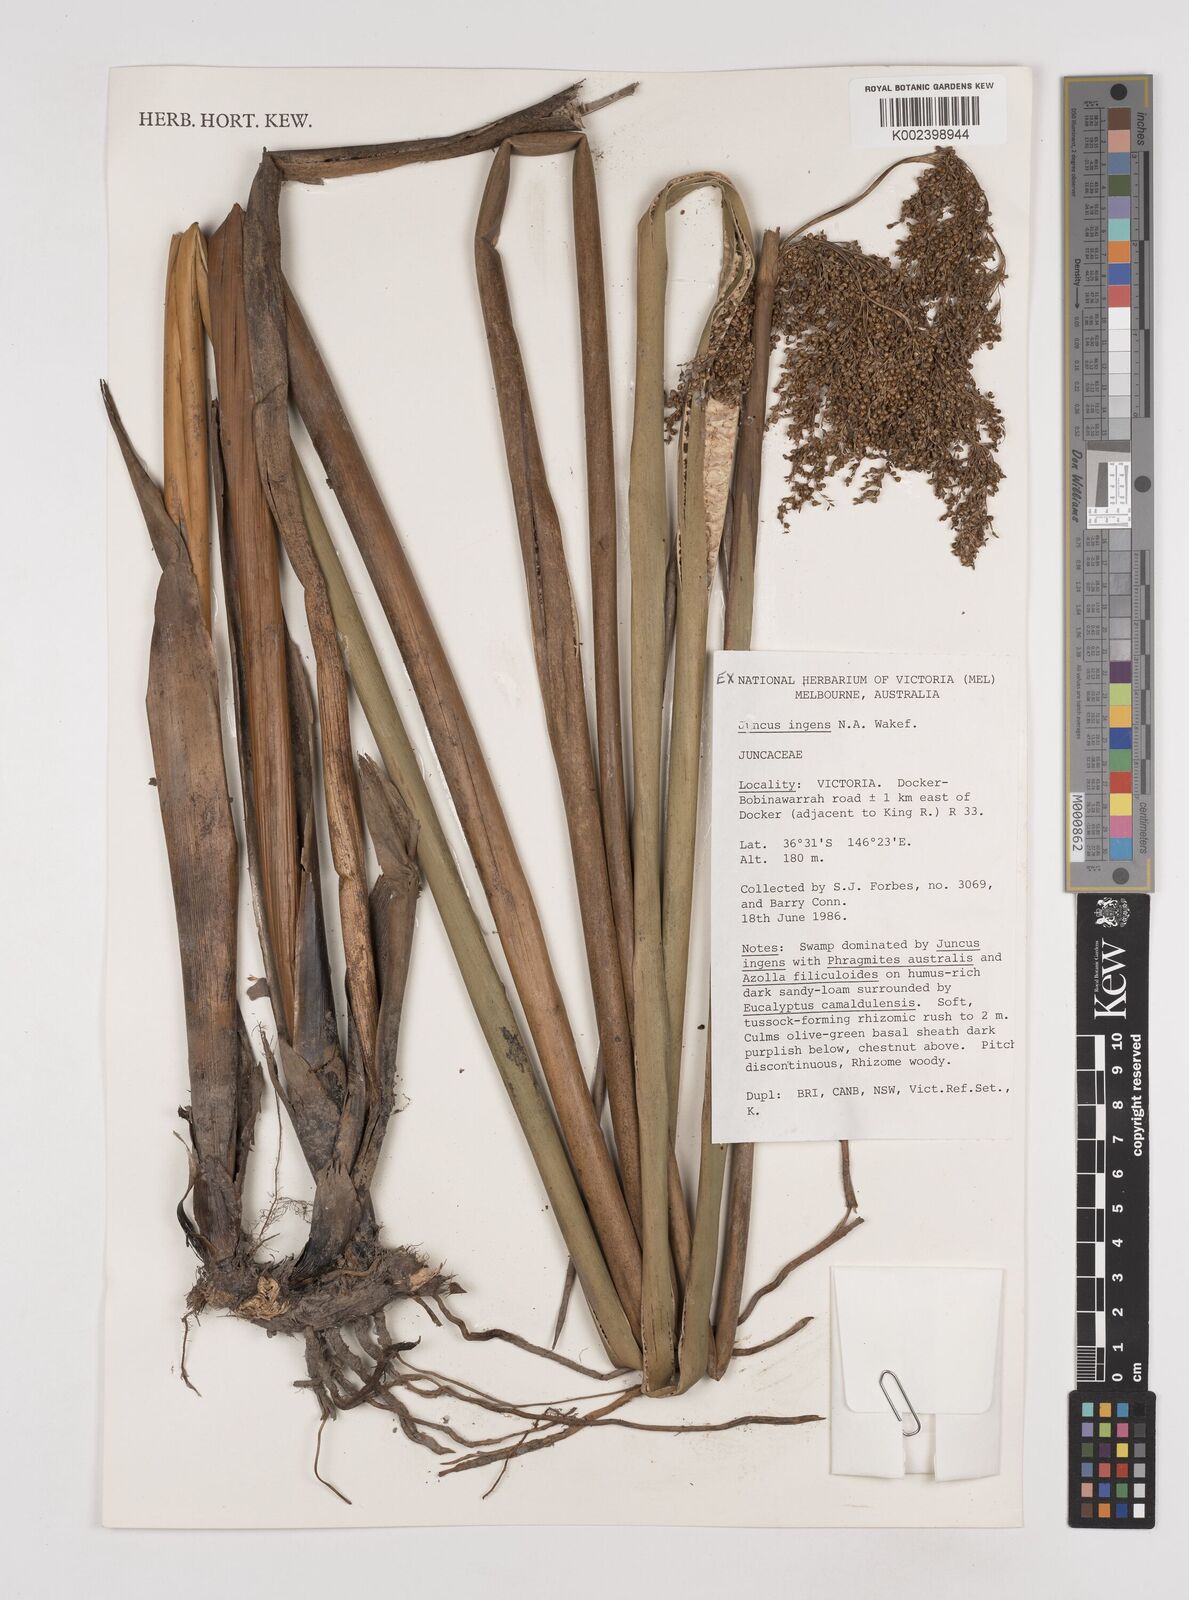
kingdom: Plantae
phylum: Tracheophyta
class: Liliopsida
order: Poales
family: Juncaceae
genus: Juncus
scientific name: Juncus
